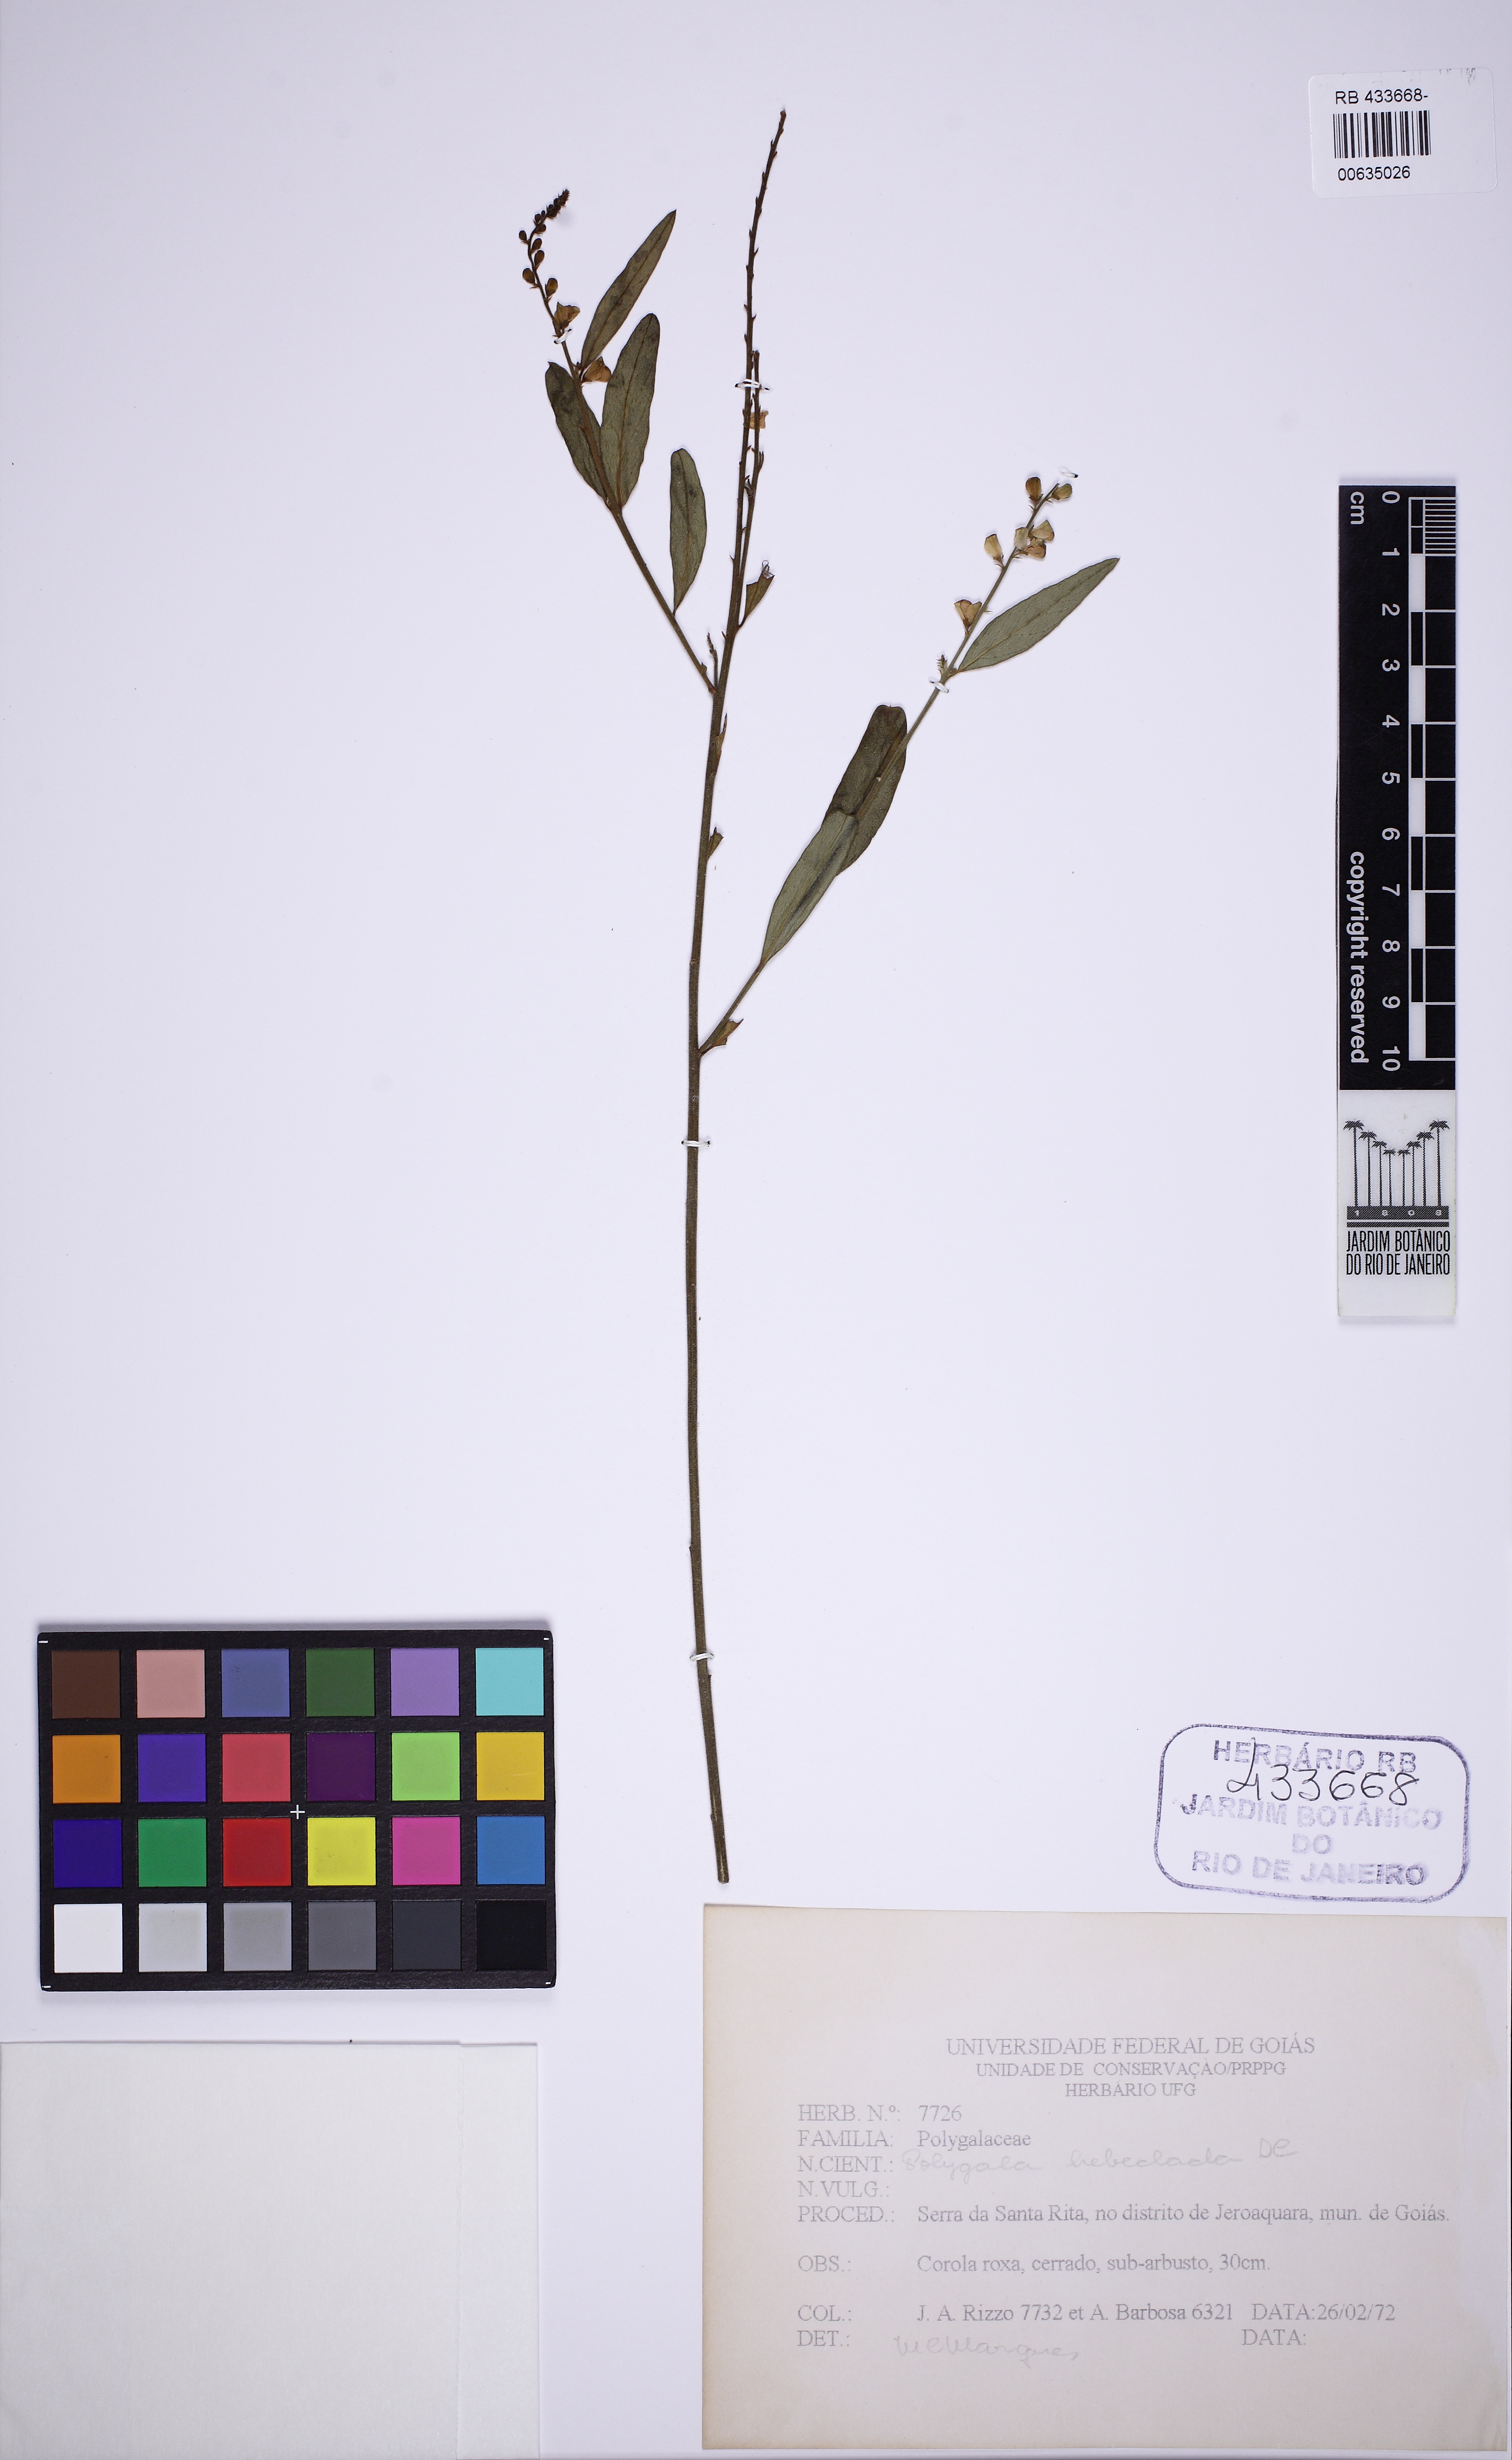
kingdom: Plantae
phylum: Tracheophyta
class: Magnoliopsida
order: Fabales
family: Polygalaceae
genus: Asemeia
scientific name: Asemeia rhodoptera
